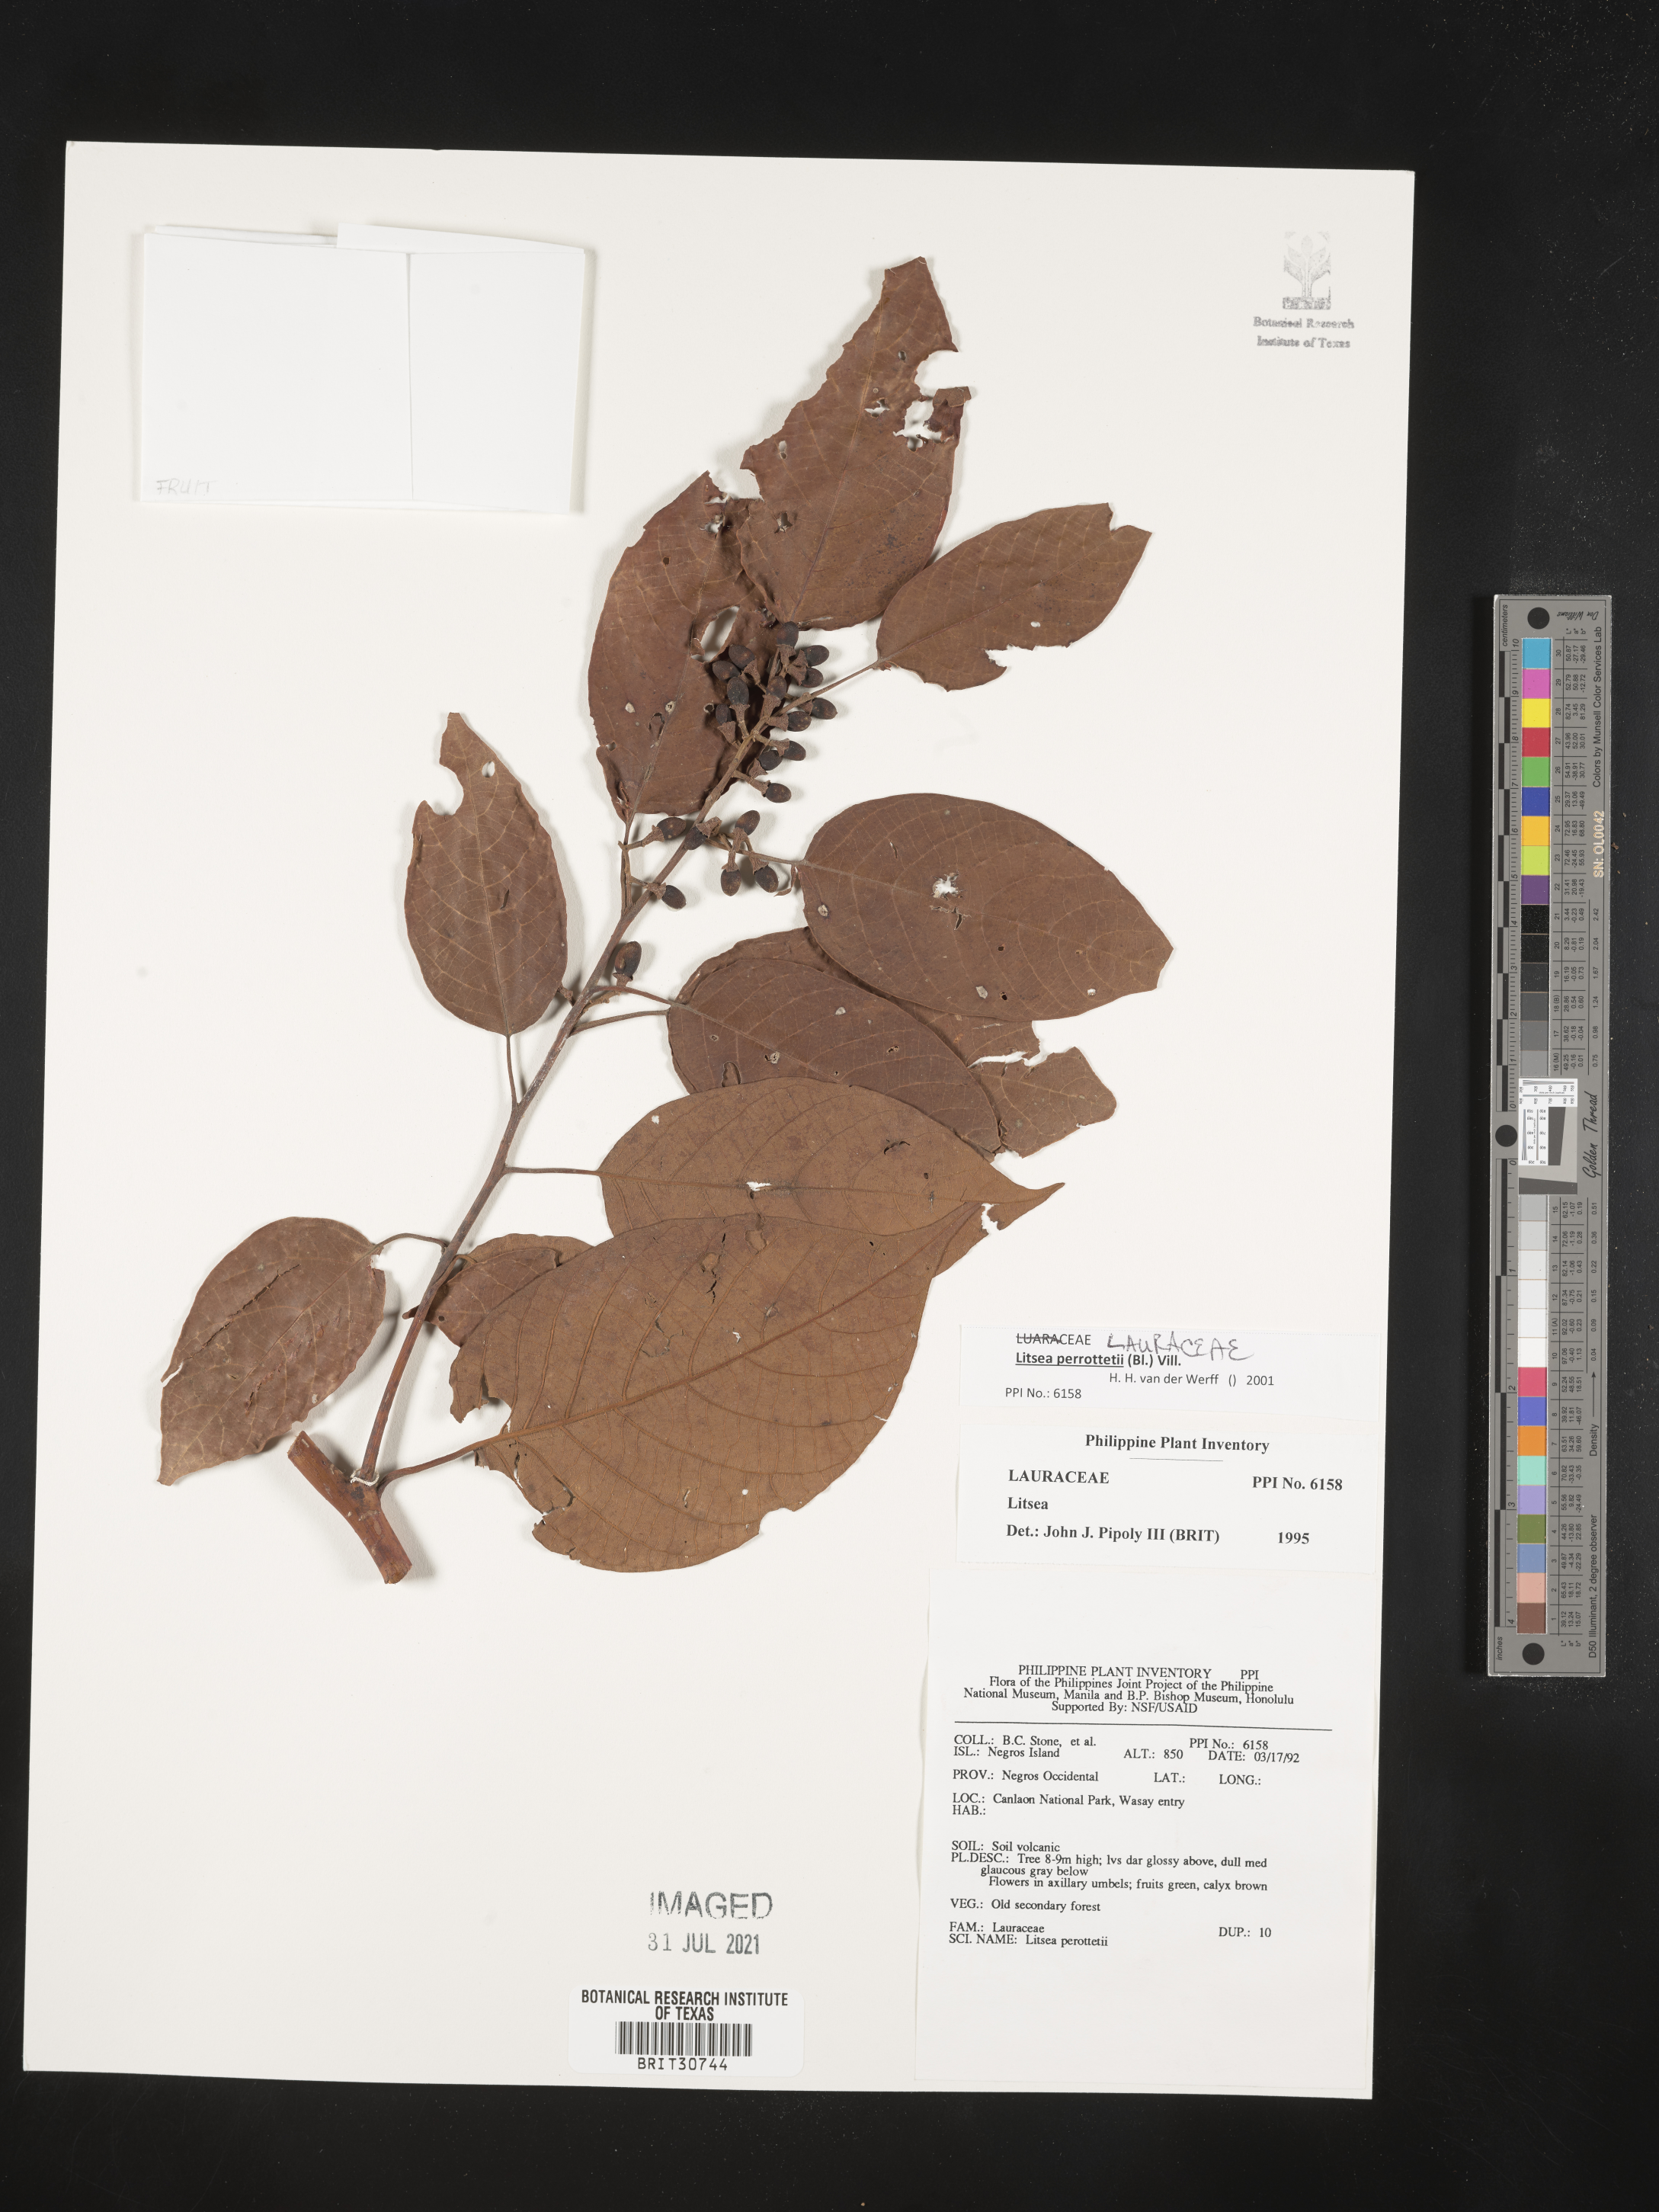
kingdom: Plantae
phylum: Tracheophyta
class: Magnoliopsida
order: Laurales
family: Lauraceae
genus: Litsea
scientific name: Litsea
